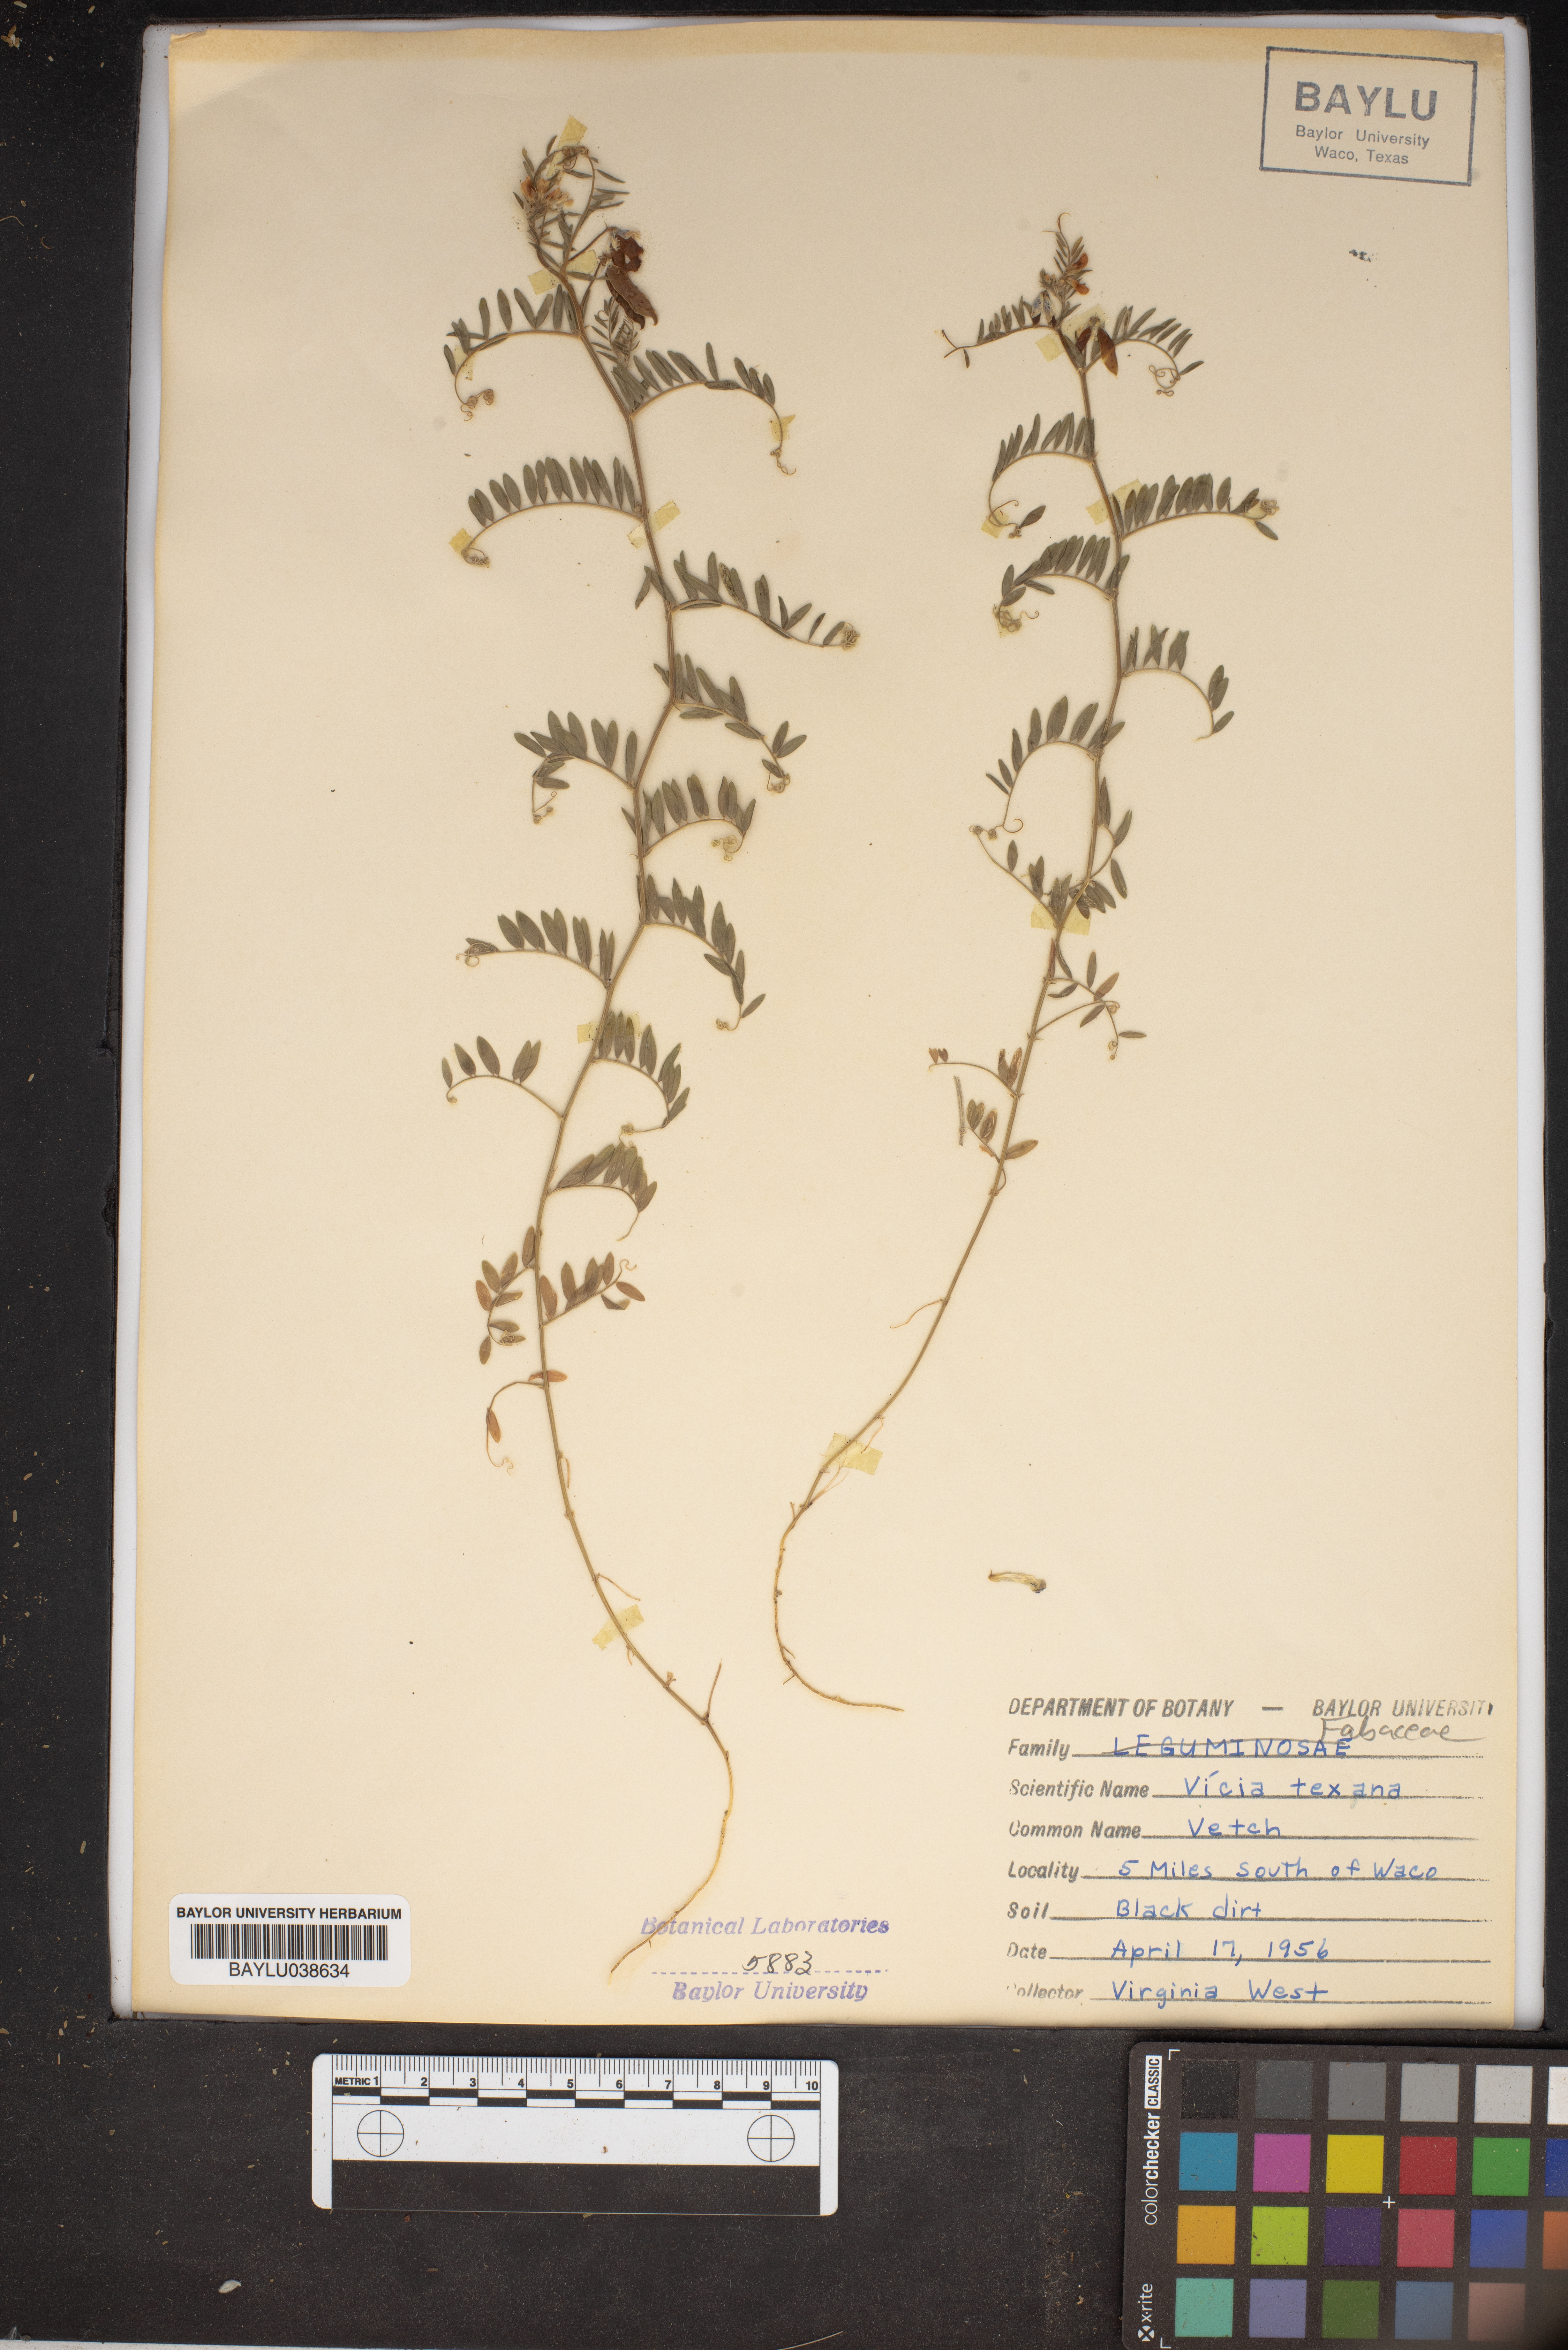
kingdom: Plantae
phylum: Tracheophyta
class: Magnoliopsida
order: Fabales
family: Fabaceae
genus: Vicia
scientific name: Vicia ludoviciana
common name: Louisiana vetch
